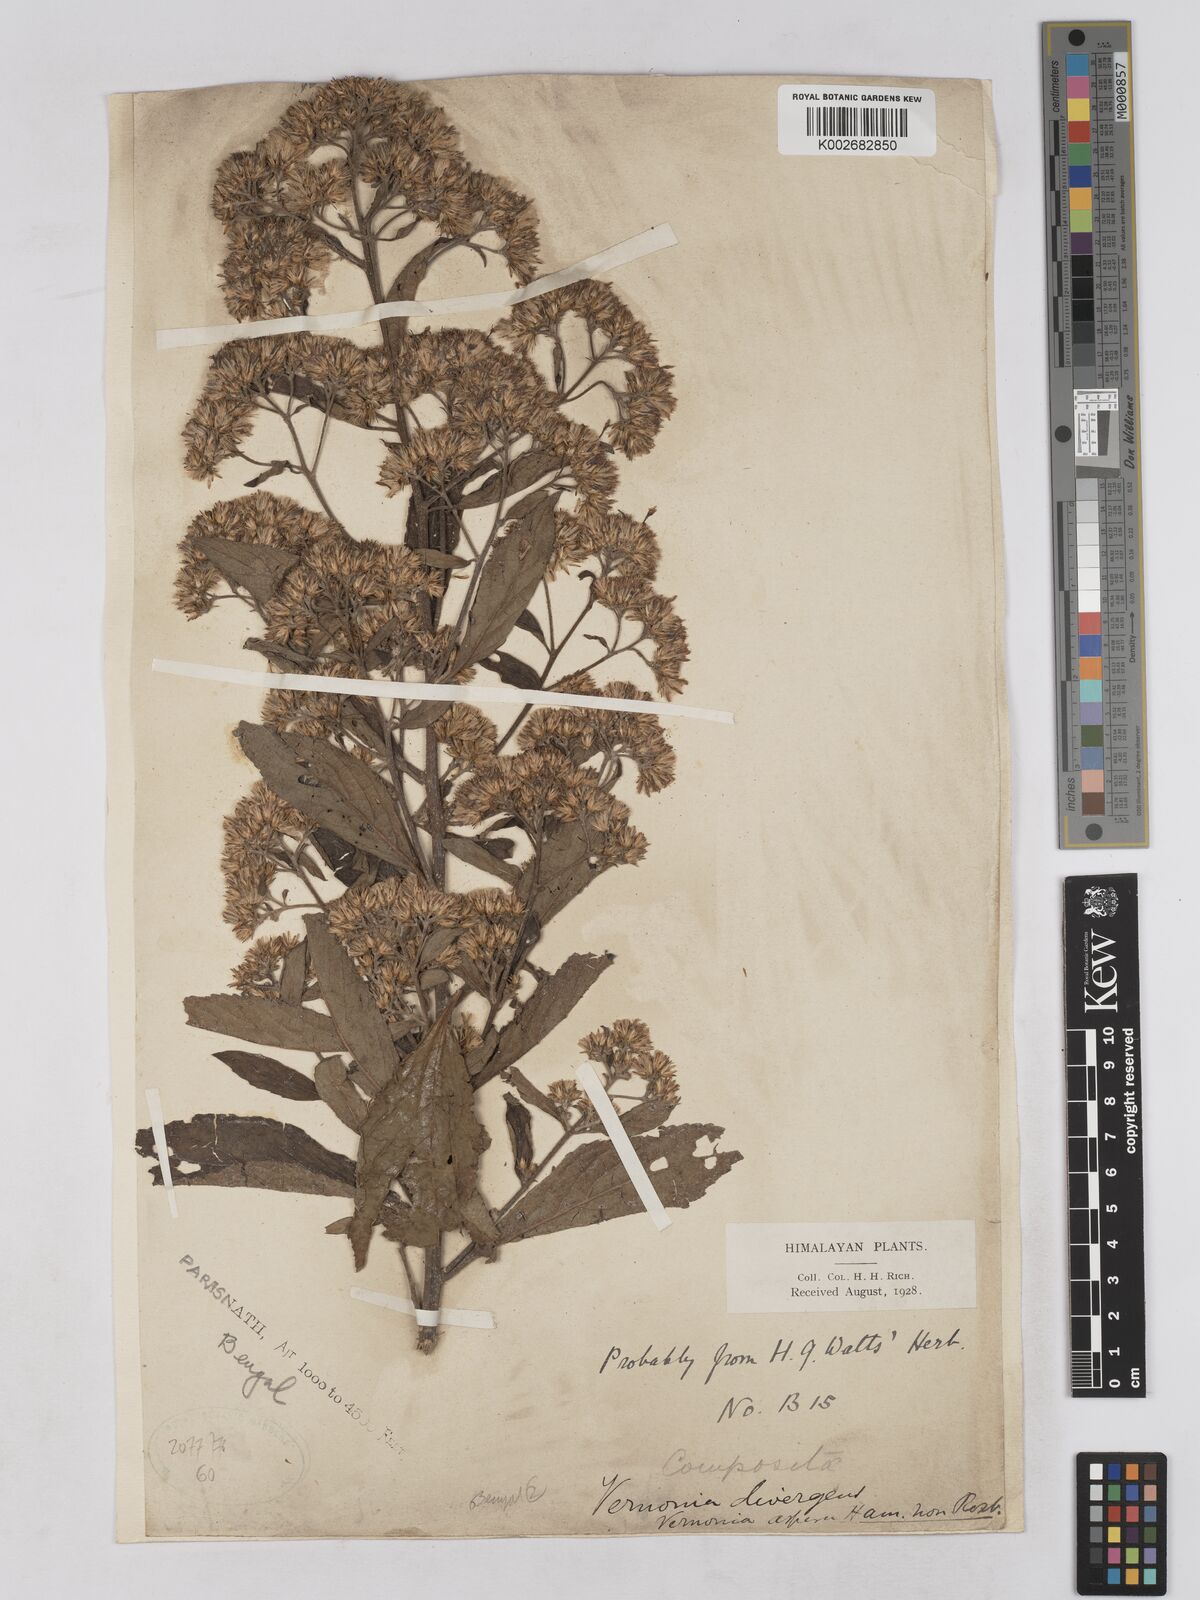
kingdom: Plantae
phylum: Tracheophyta
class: Magnoliopsida
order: Asterales
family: Asteraceae
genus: Acilepis
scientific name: Acilepis divergens
